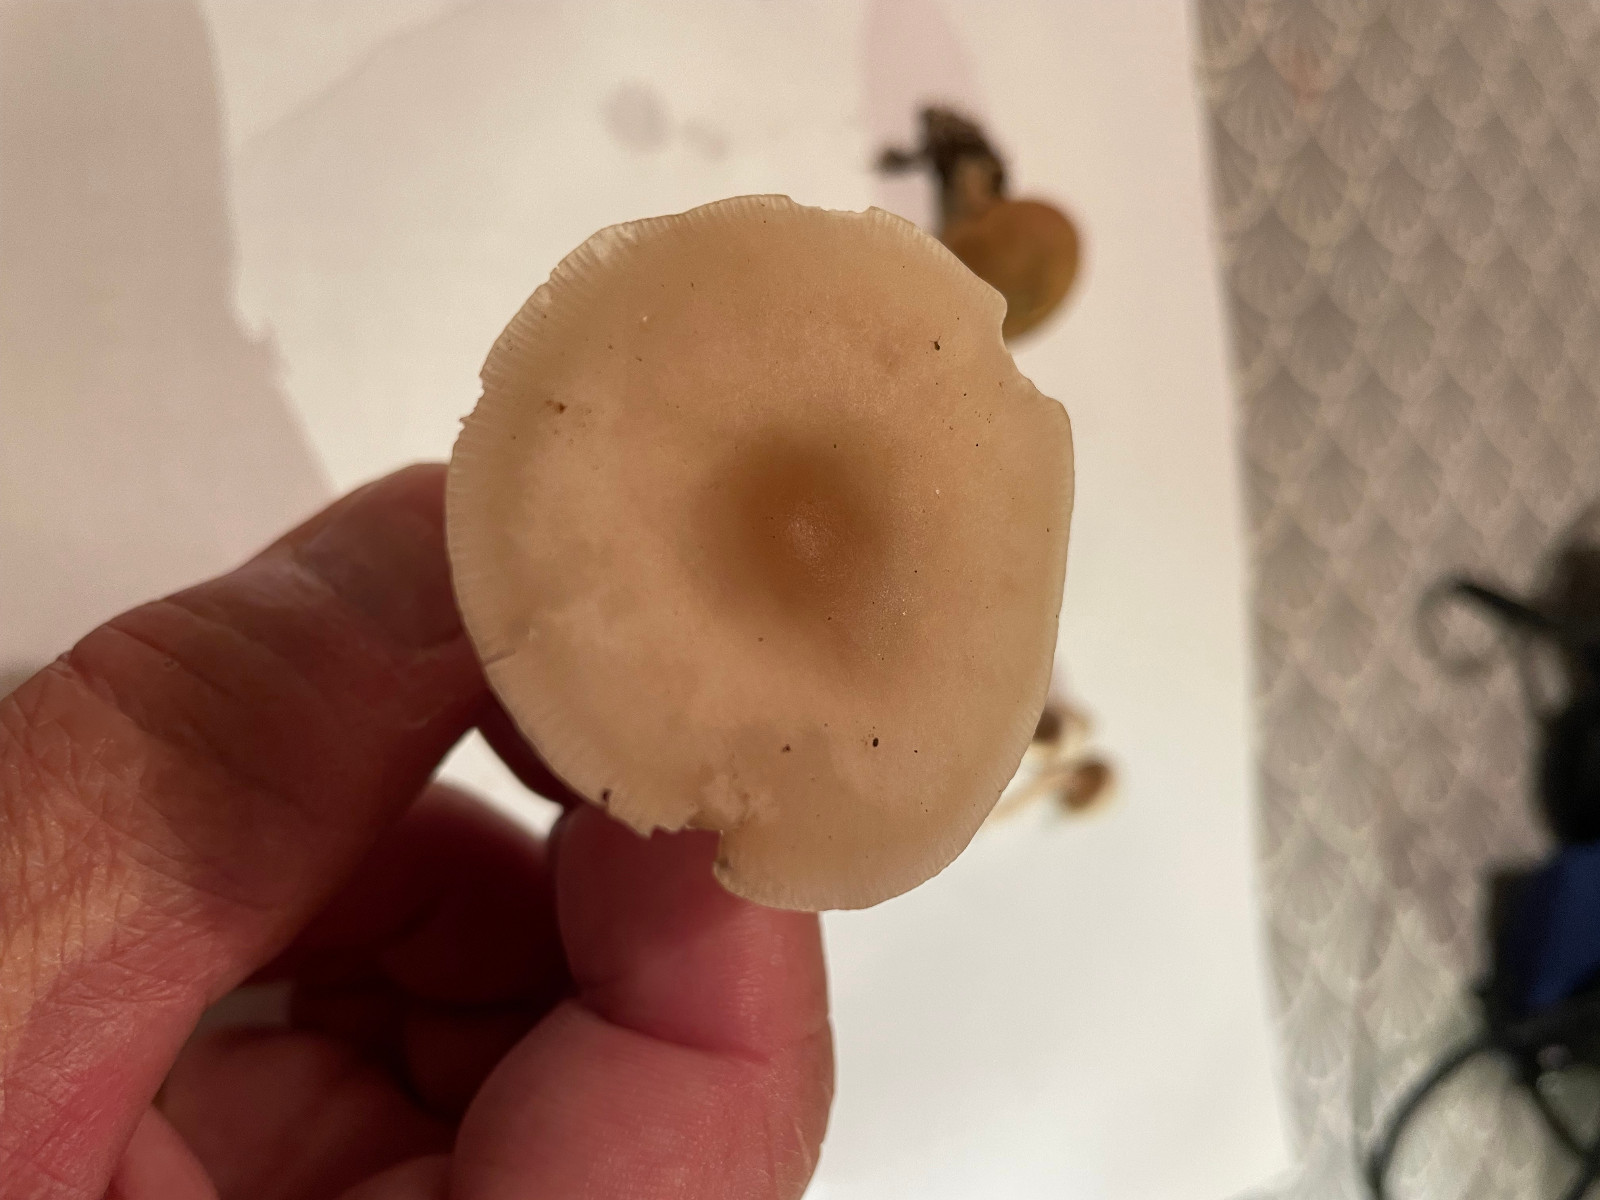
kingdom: Fungi
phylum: Basidiomycota
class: Agaricomycetes
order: Agaricales
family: Tricholomataceae
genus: Clitocybe
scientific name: Clitocybe fragrans
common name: vellugtende tragthat
